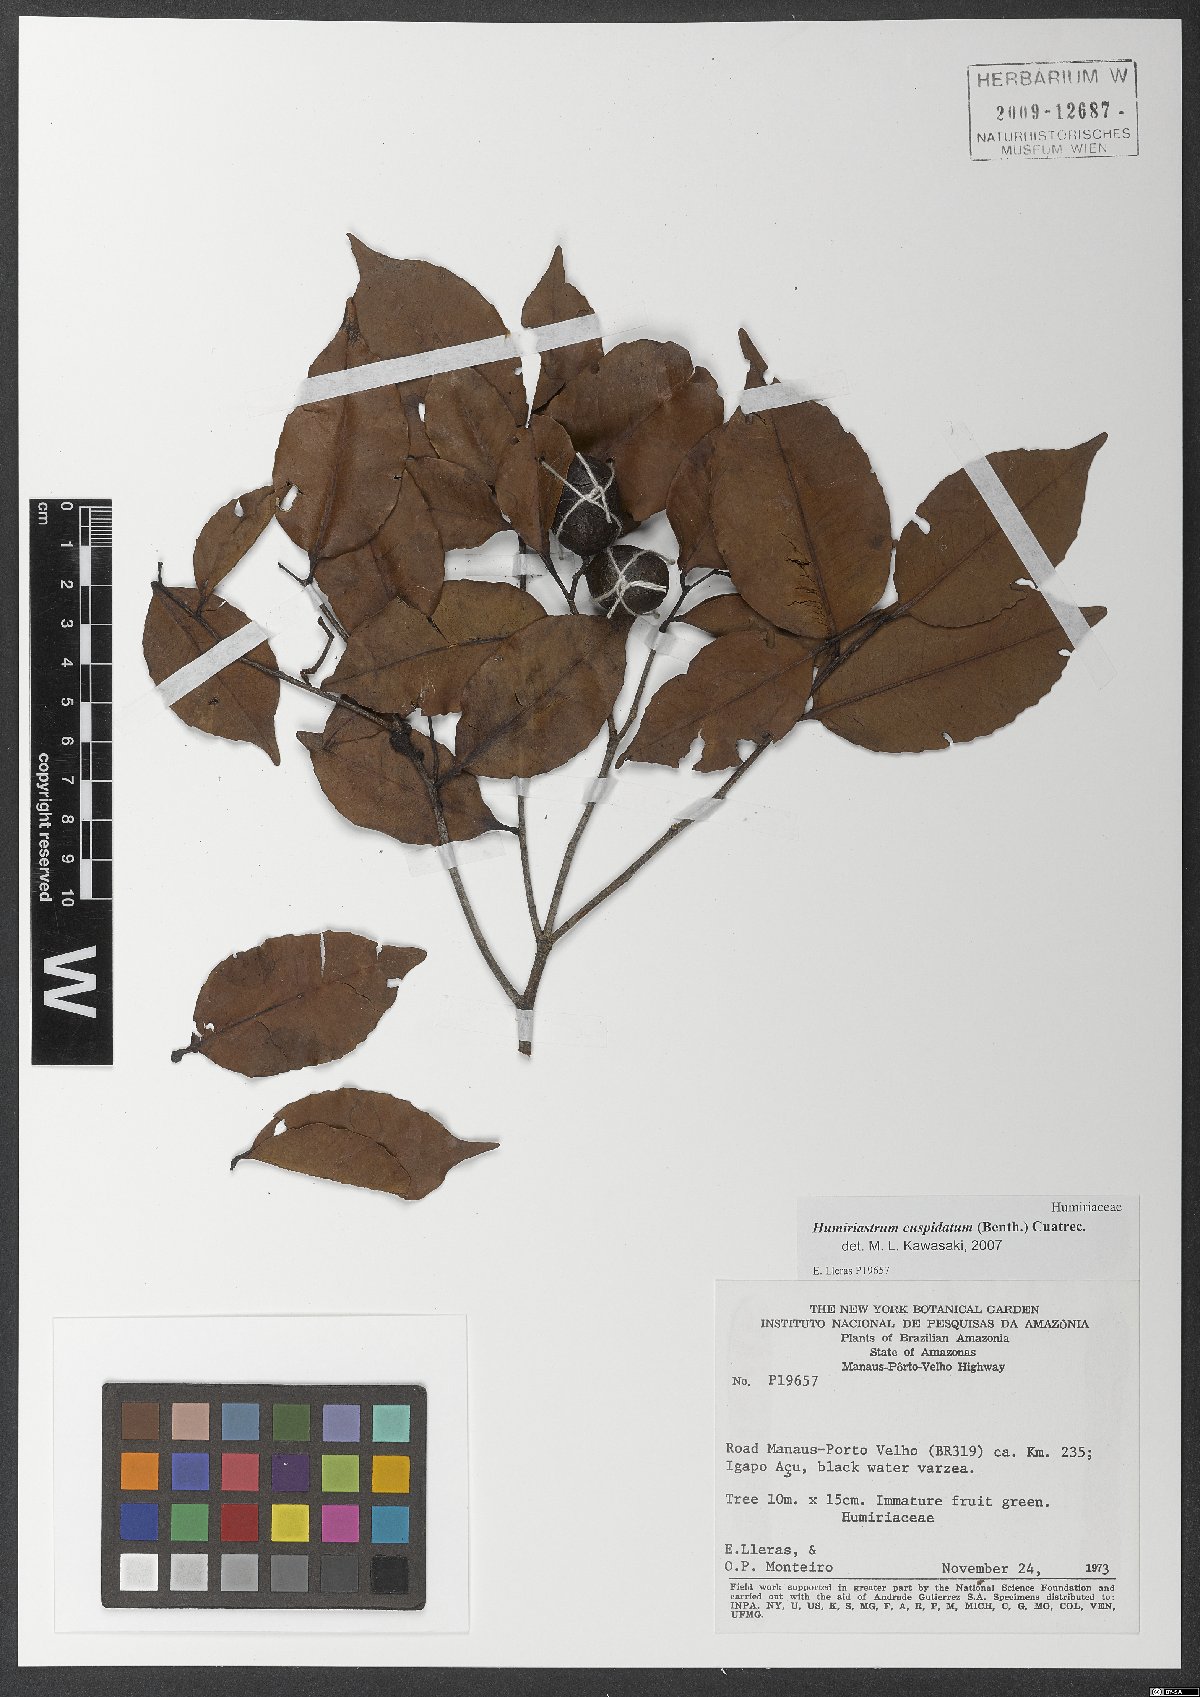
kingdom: Plantae
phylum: Tracheophyta
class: Magnoliopsida
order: Malpighiales
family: Humiriaceae
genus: Humiriastrum
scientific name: Humiriastrum cuspidatum
